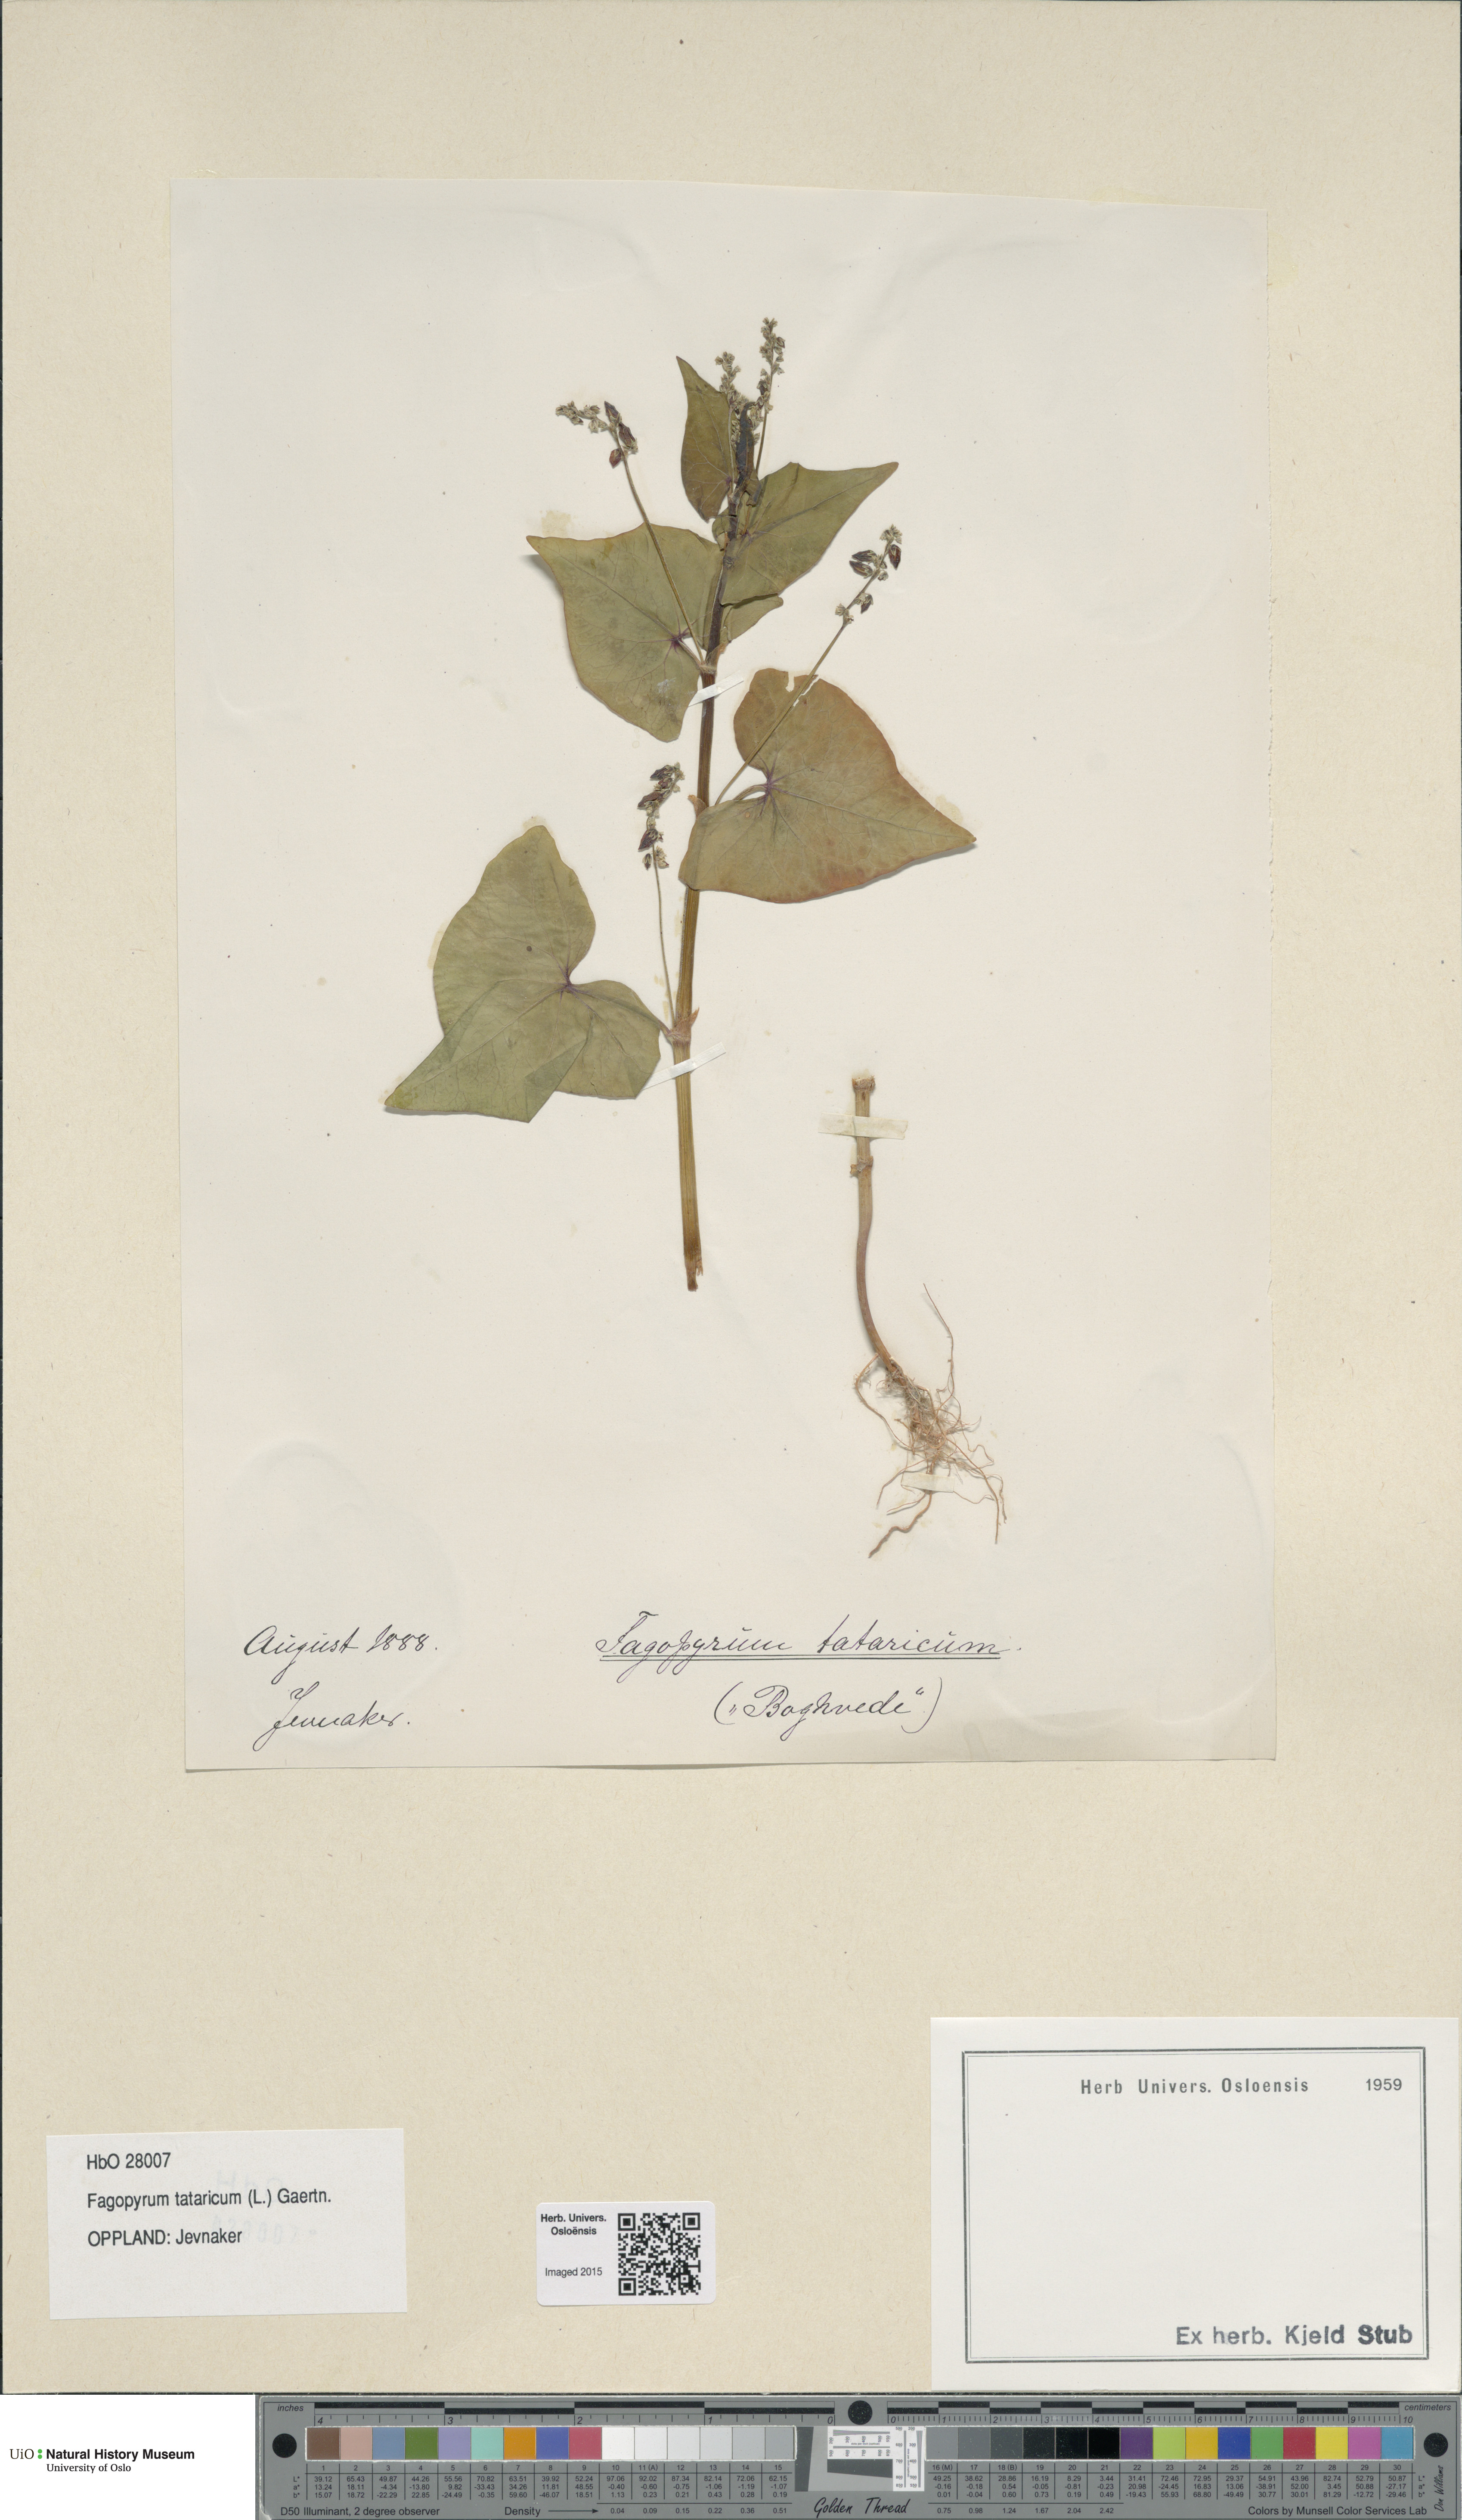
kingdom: Plantae
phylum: Tracheophyta
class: Magnoliopsida
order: Caryophyllales
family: Polygonaceae
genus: Fagopyrum
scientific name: Fagopyrum tataricum
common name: Green buckwheat
